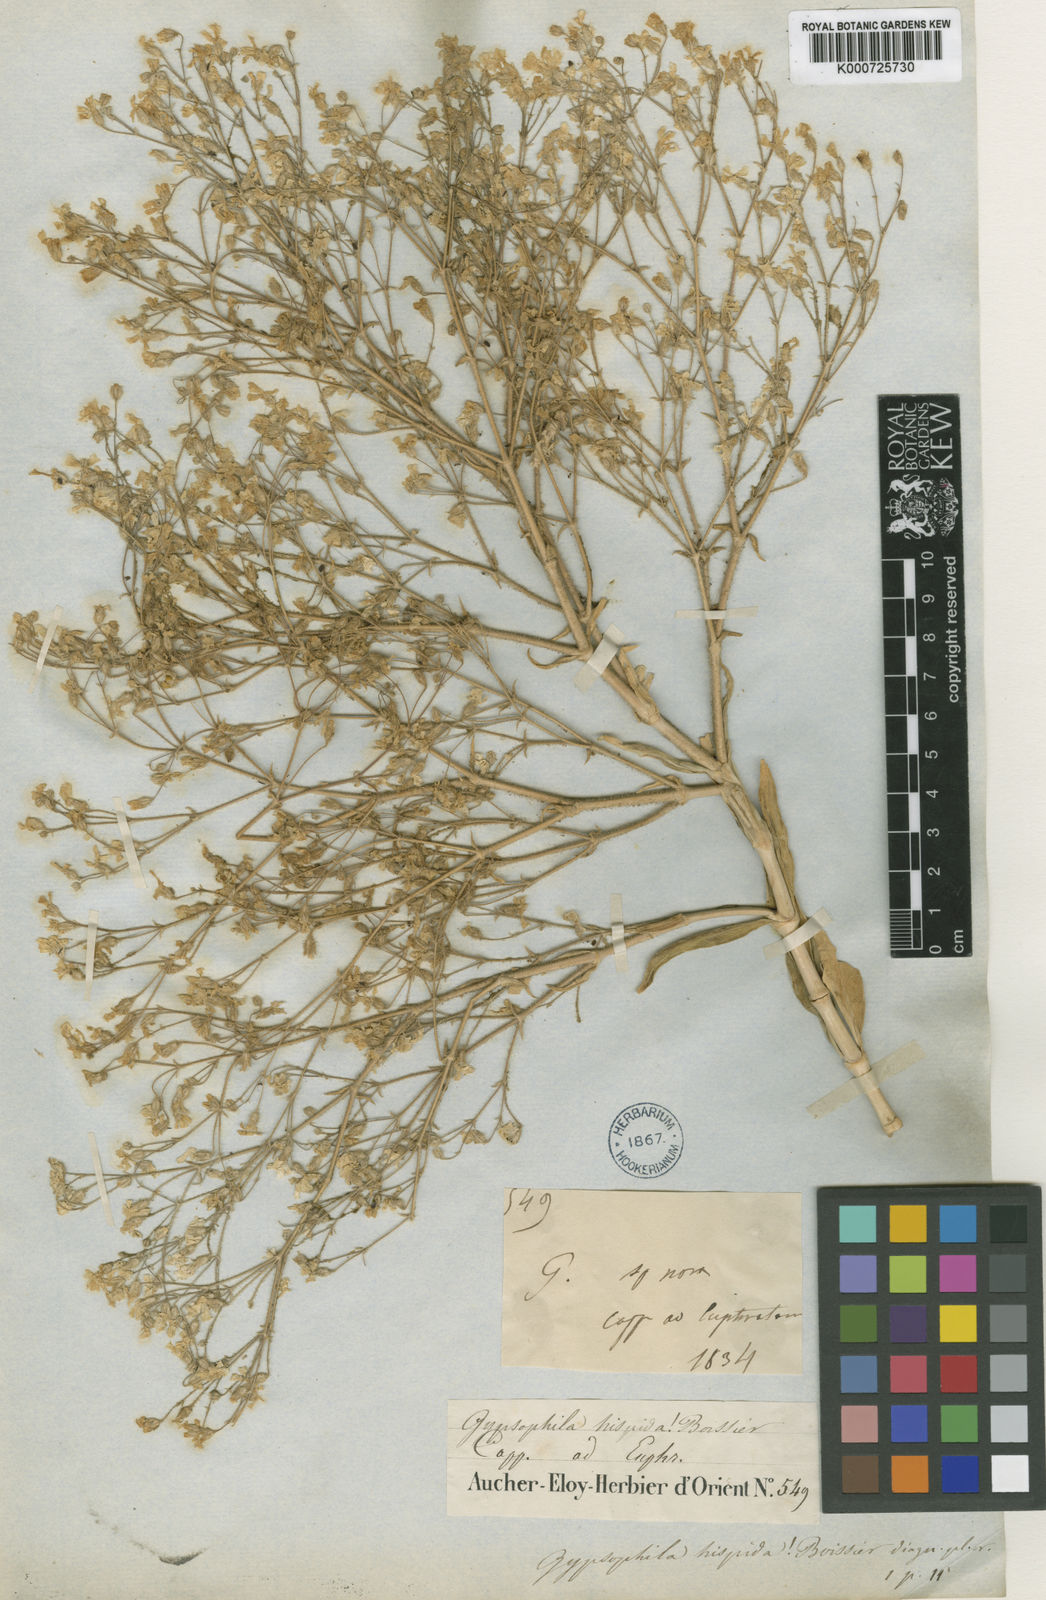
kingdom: Plantae
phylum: Tracheophyta
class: Magnoliopsida
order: Caryophyllales
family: Caryophyllaceae
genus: Gypsophila
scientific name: Gypsophila hispida
